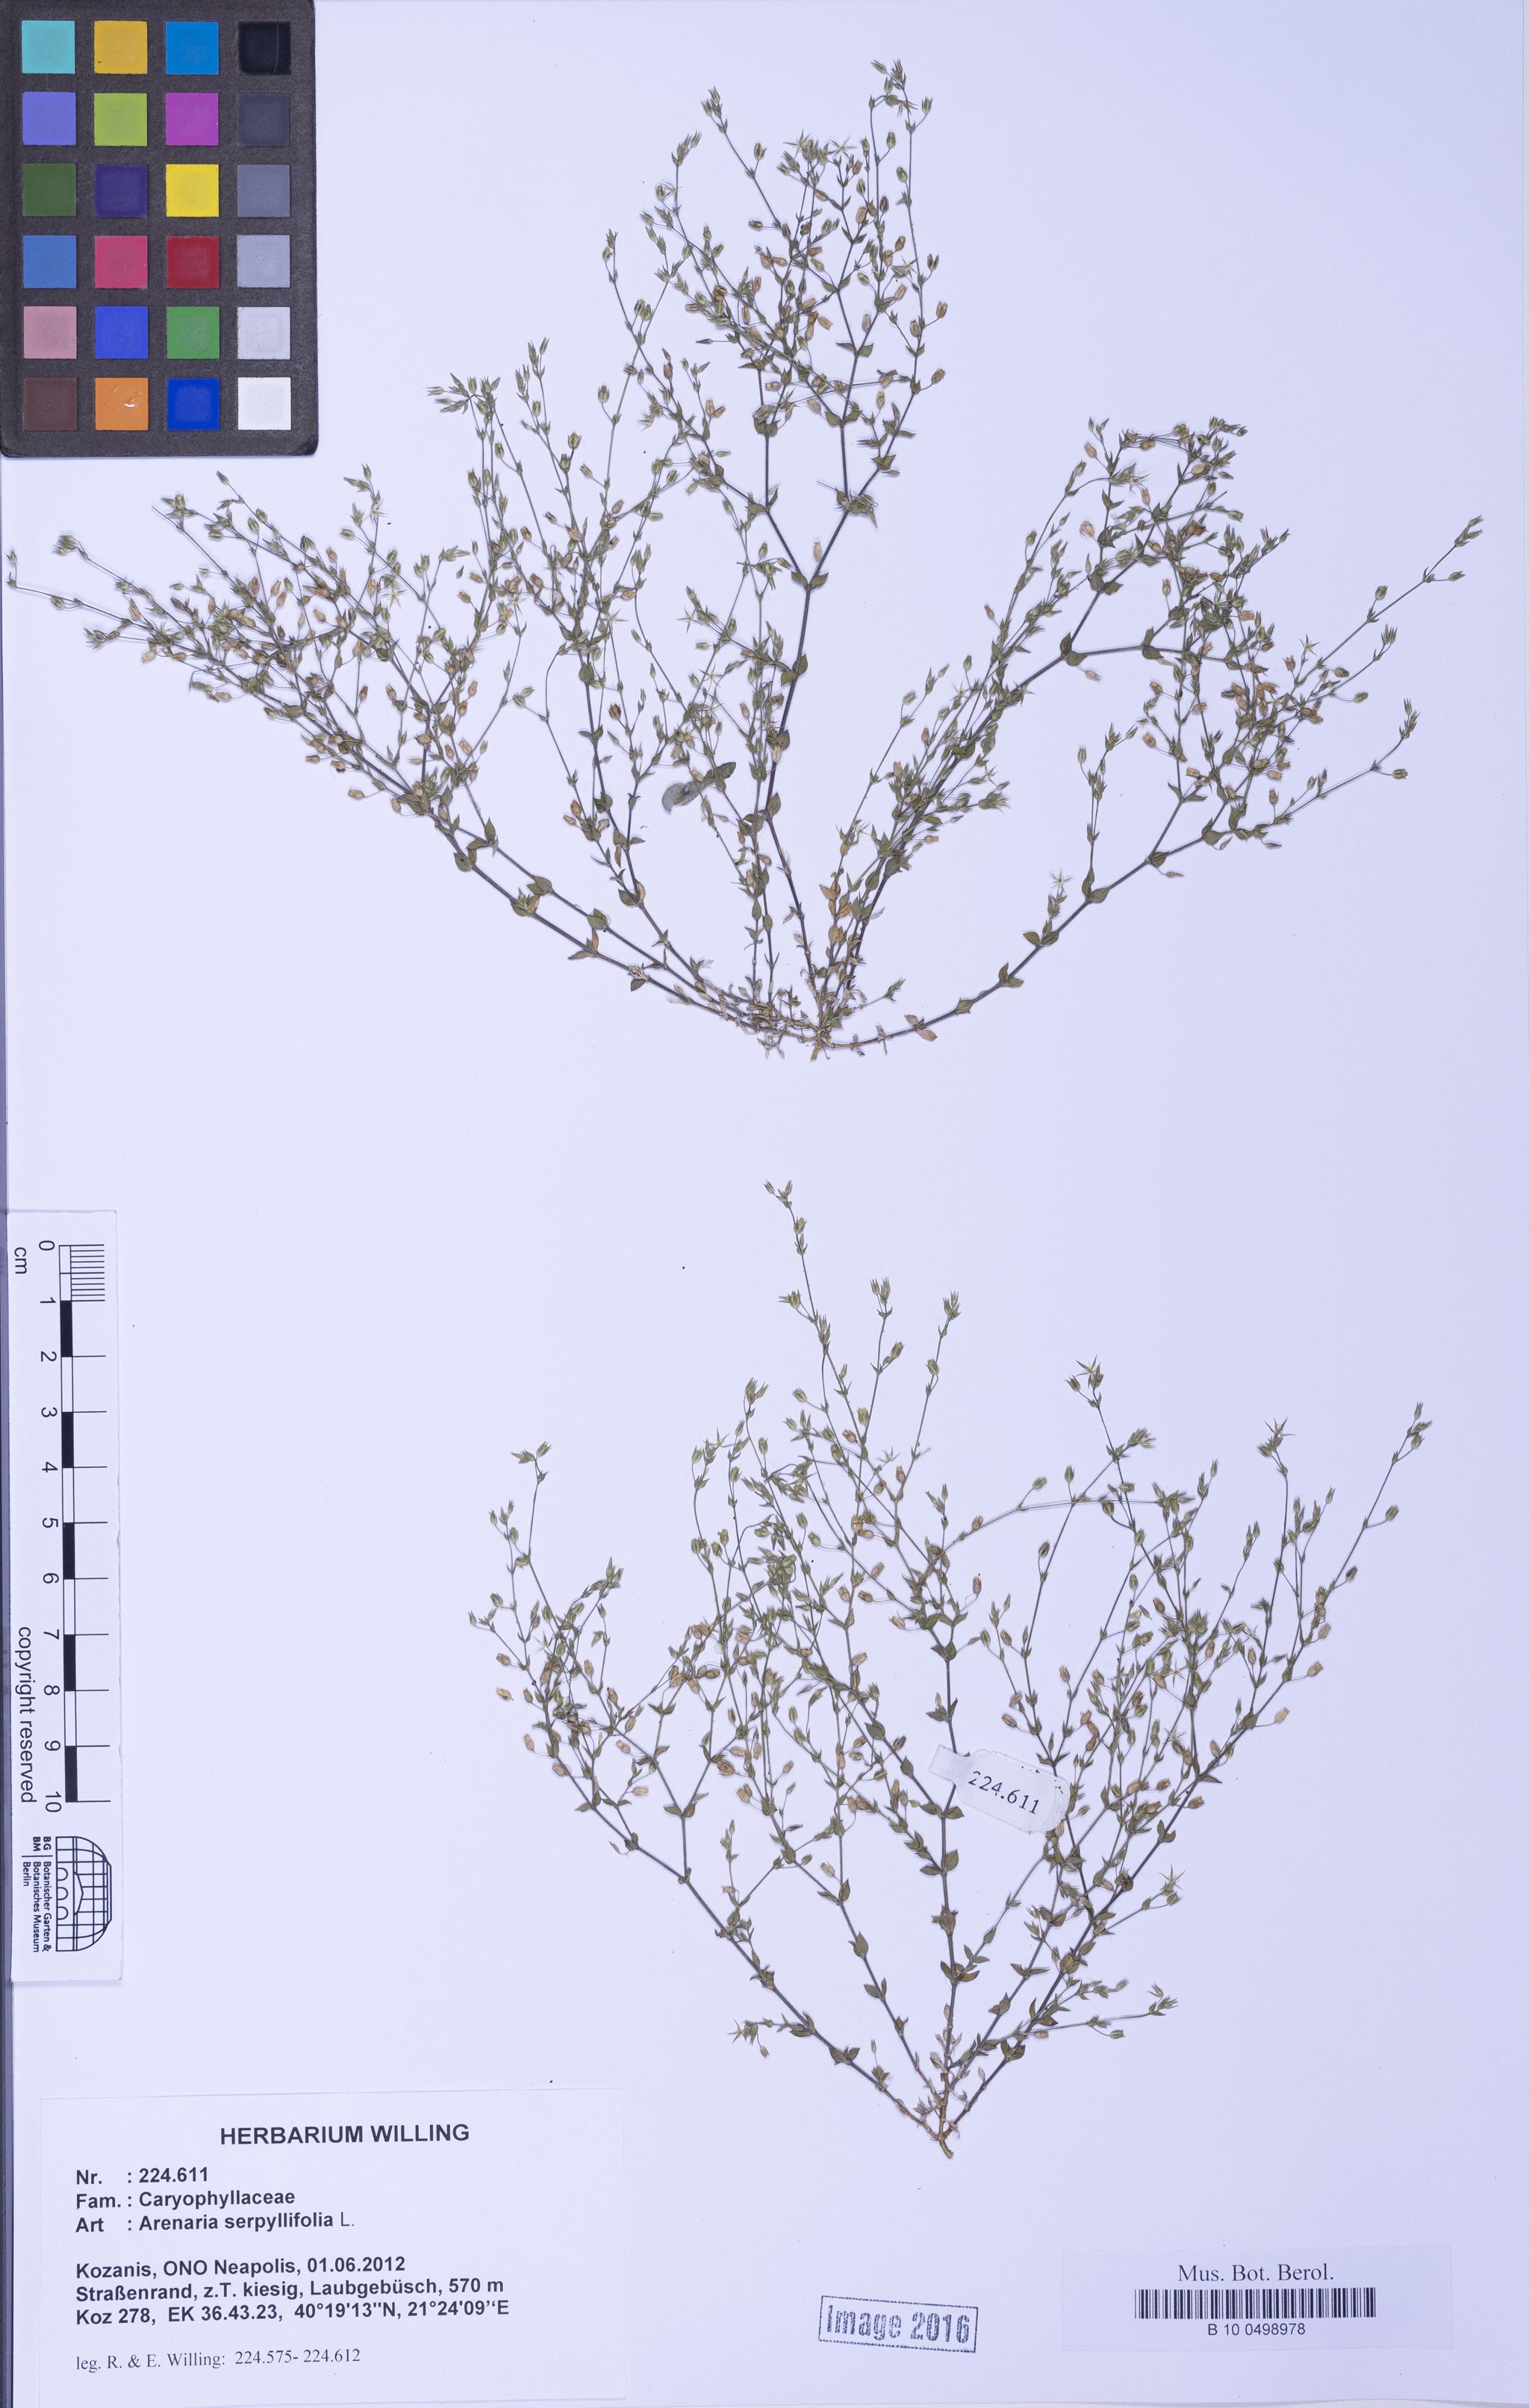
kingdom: Plantae
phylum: Tracheophyta
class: Magnoliopsida
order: Caryophyllales
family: Caryophyllaceae
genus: Arenaria
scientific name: Arenaria serpyllifolia
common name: Thyme-leaved sandwort
